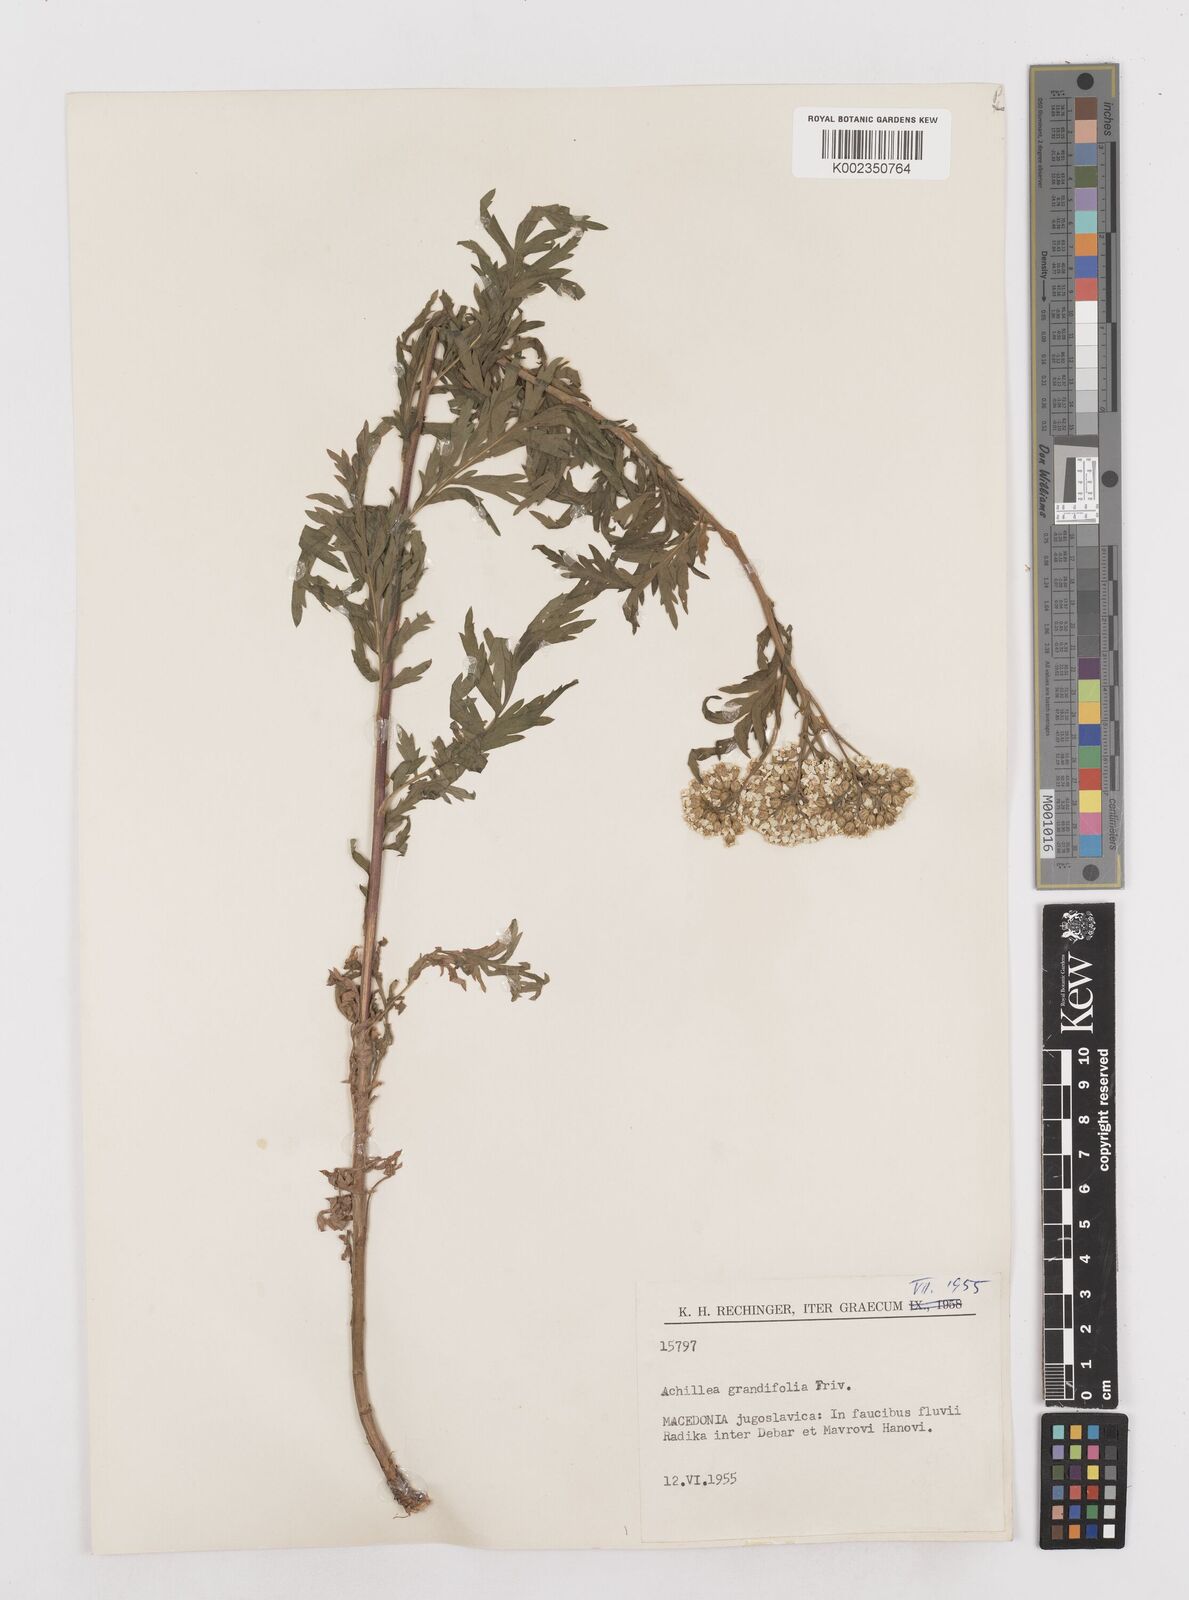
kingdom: Plantae
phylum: Tracheophyta
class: Magnoliopsida
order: Asterales
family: Asteraceae
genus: Achillea
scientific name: Achillea grandifolia
